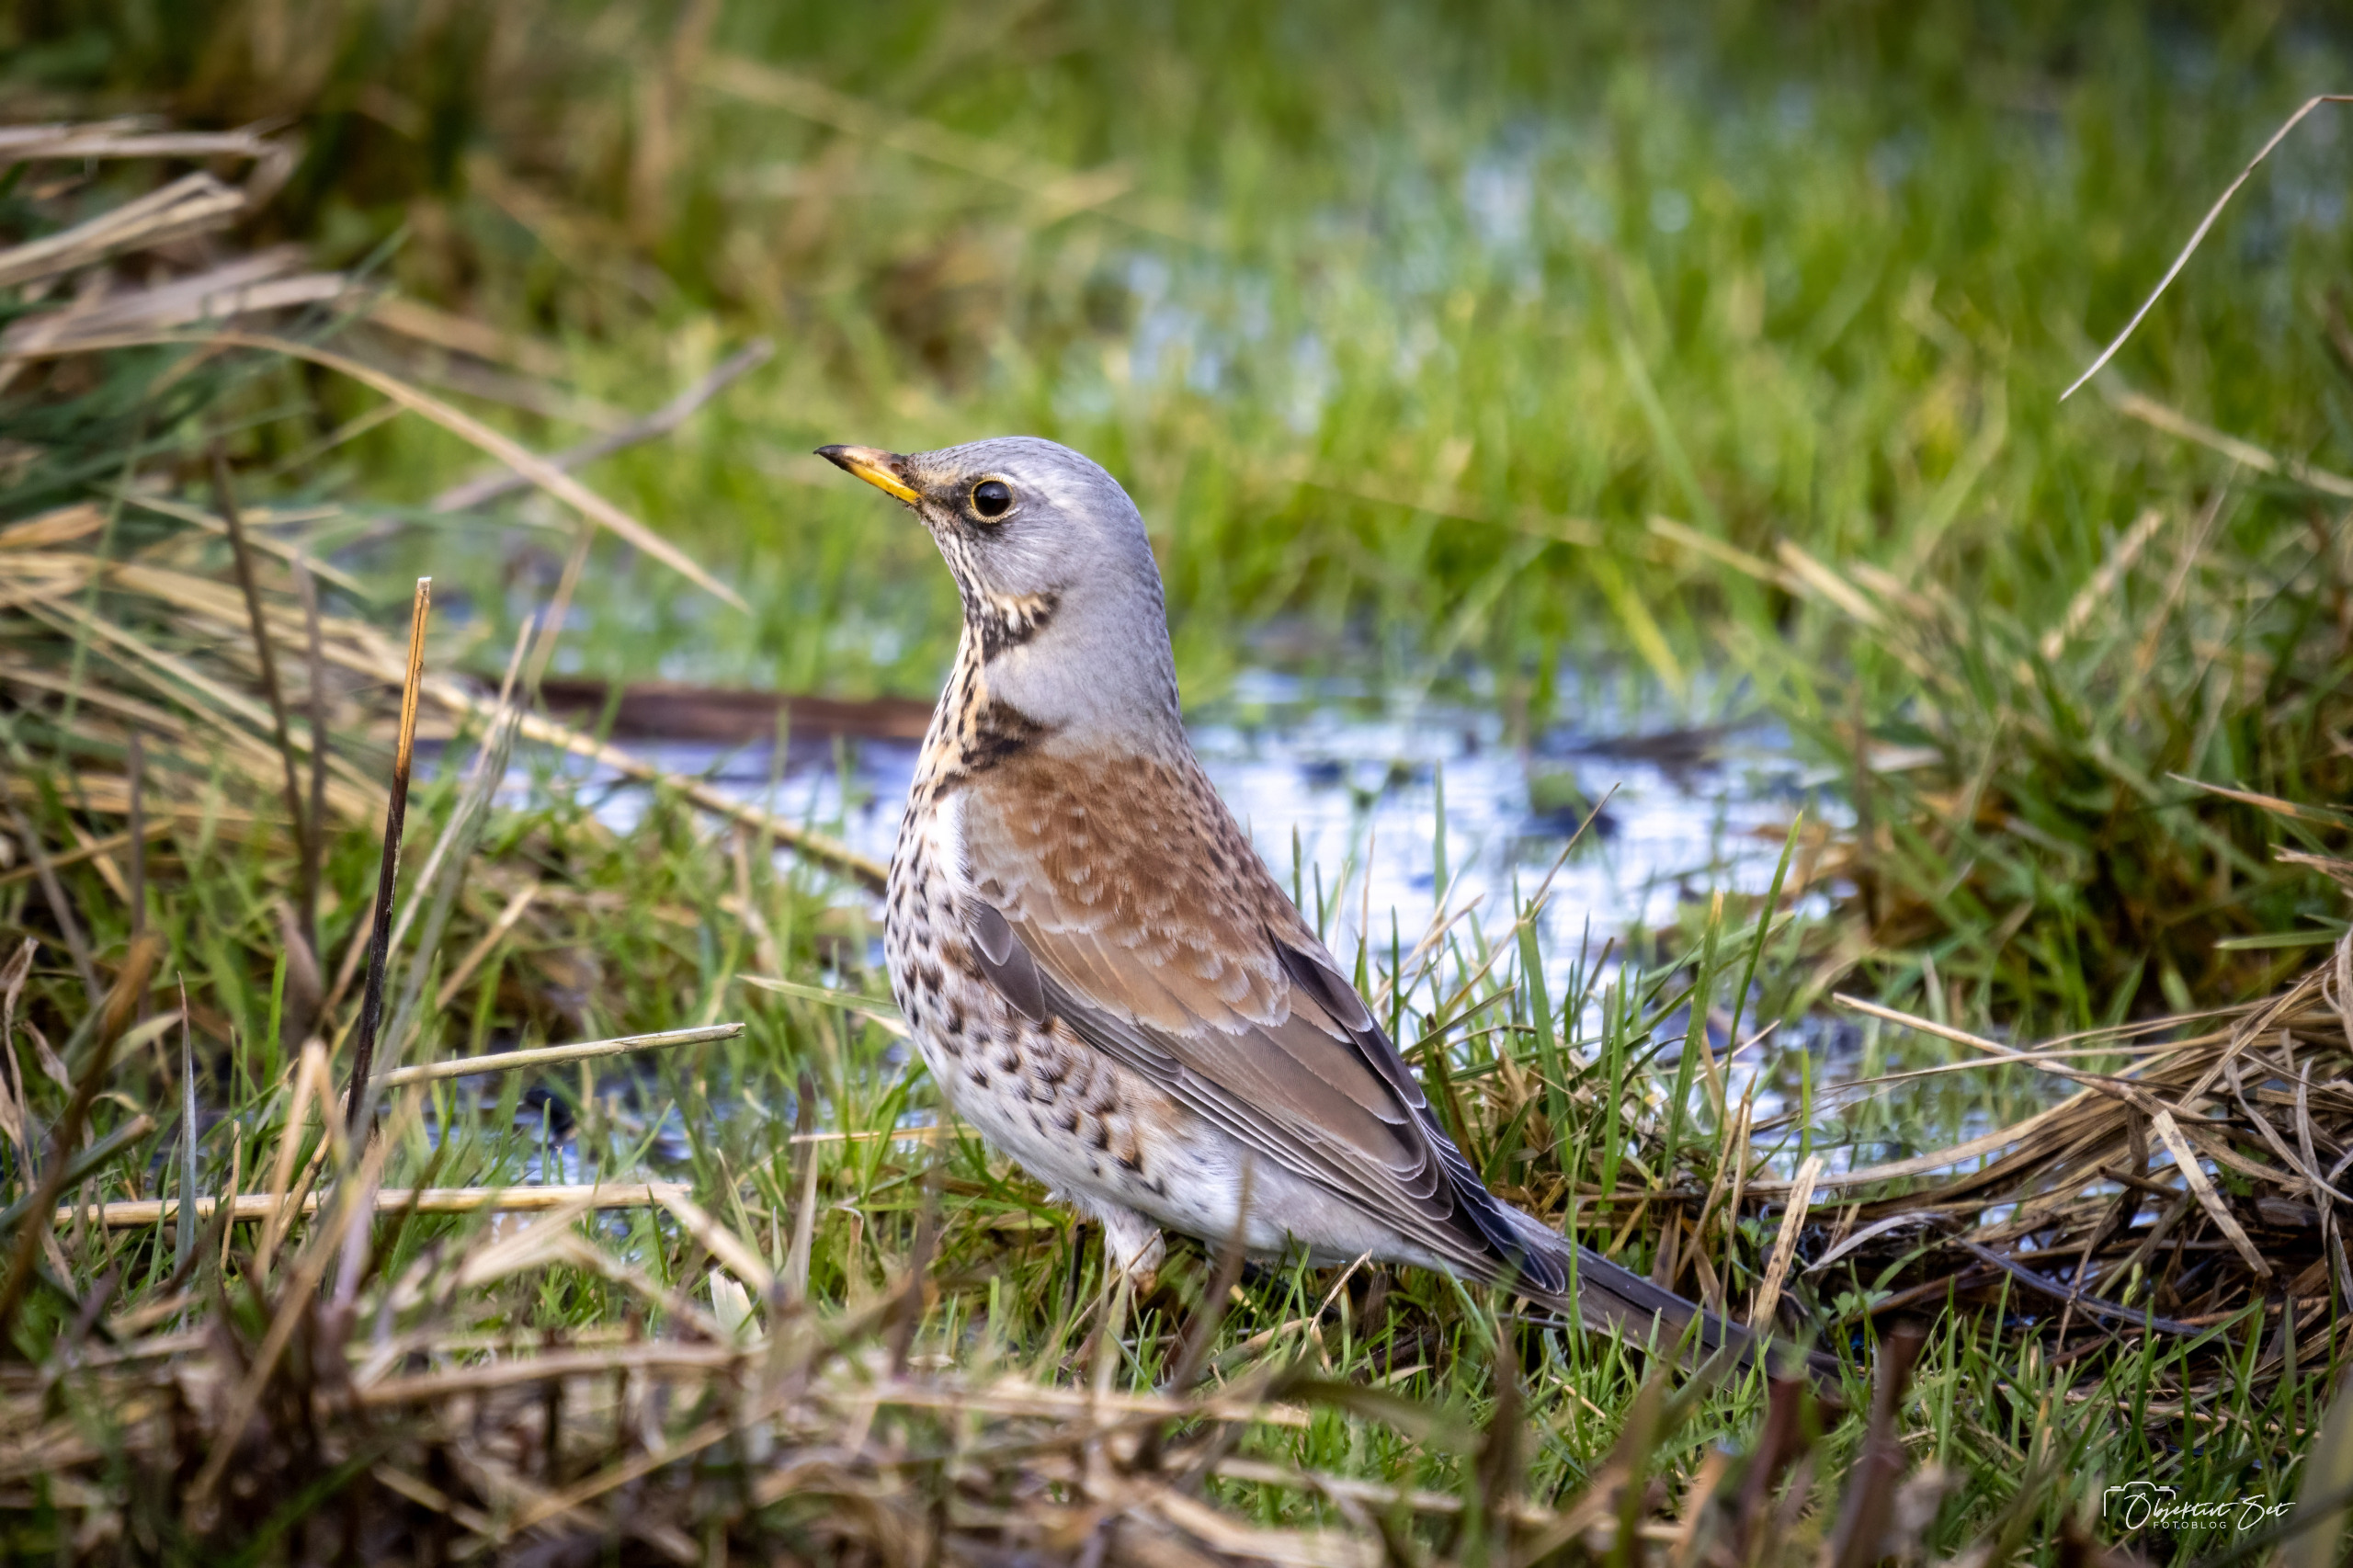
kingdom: Animalia
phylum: Chordata
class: Aves
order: Passeriformes
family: Turdidae
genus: Turdus
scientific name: Turdus pilaris
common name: Sjagger
